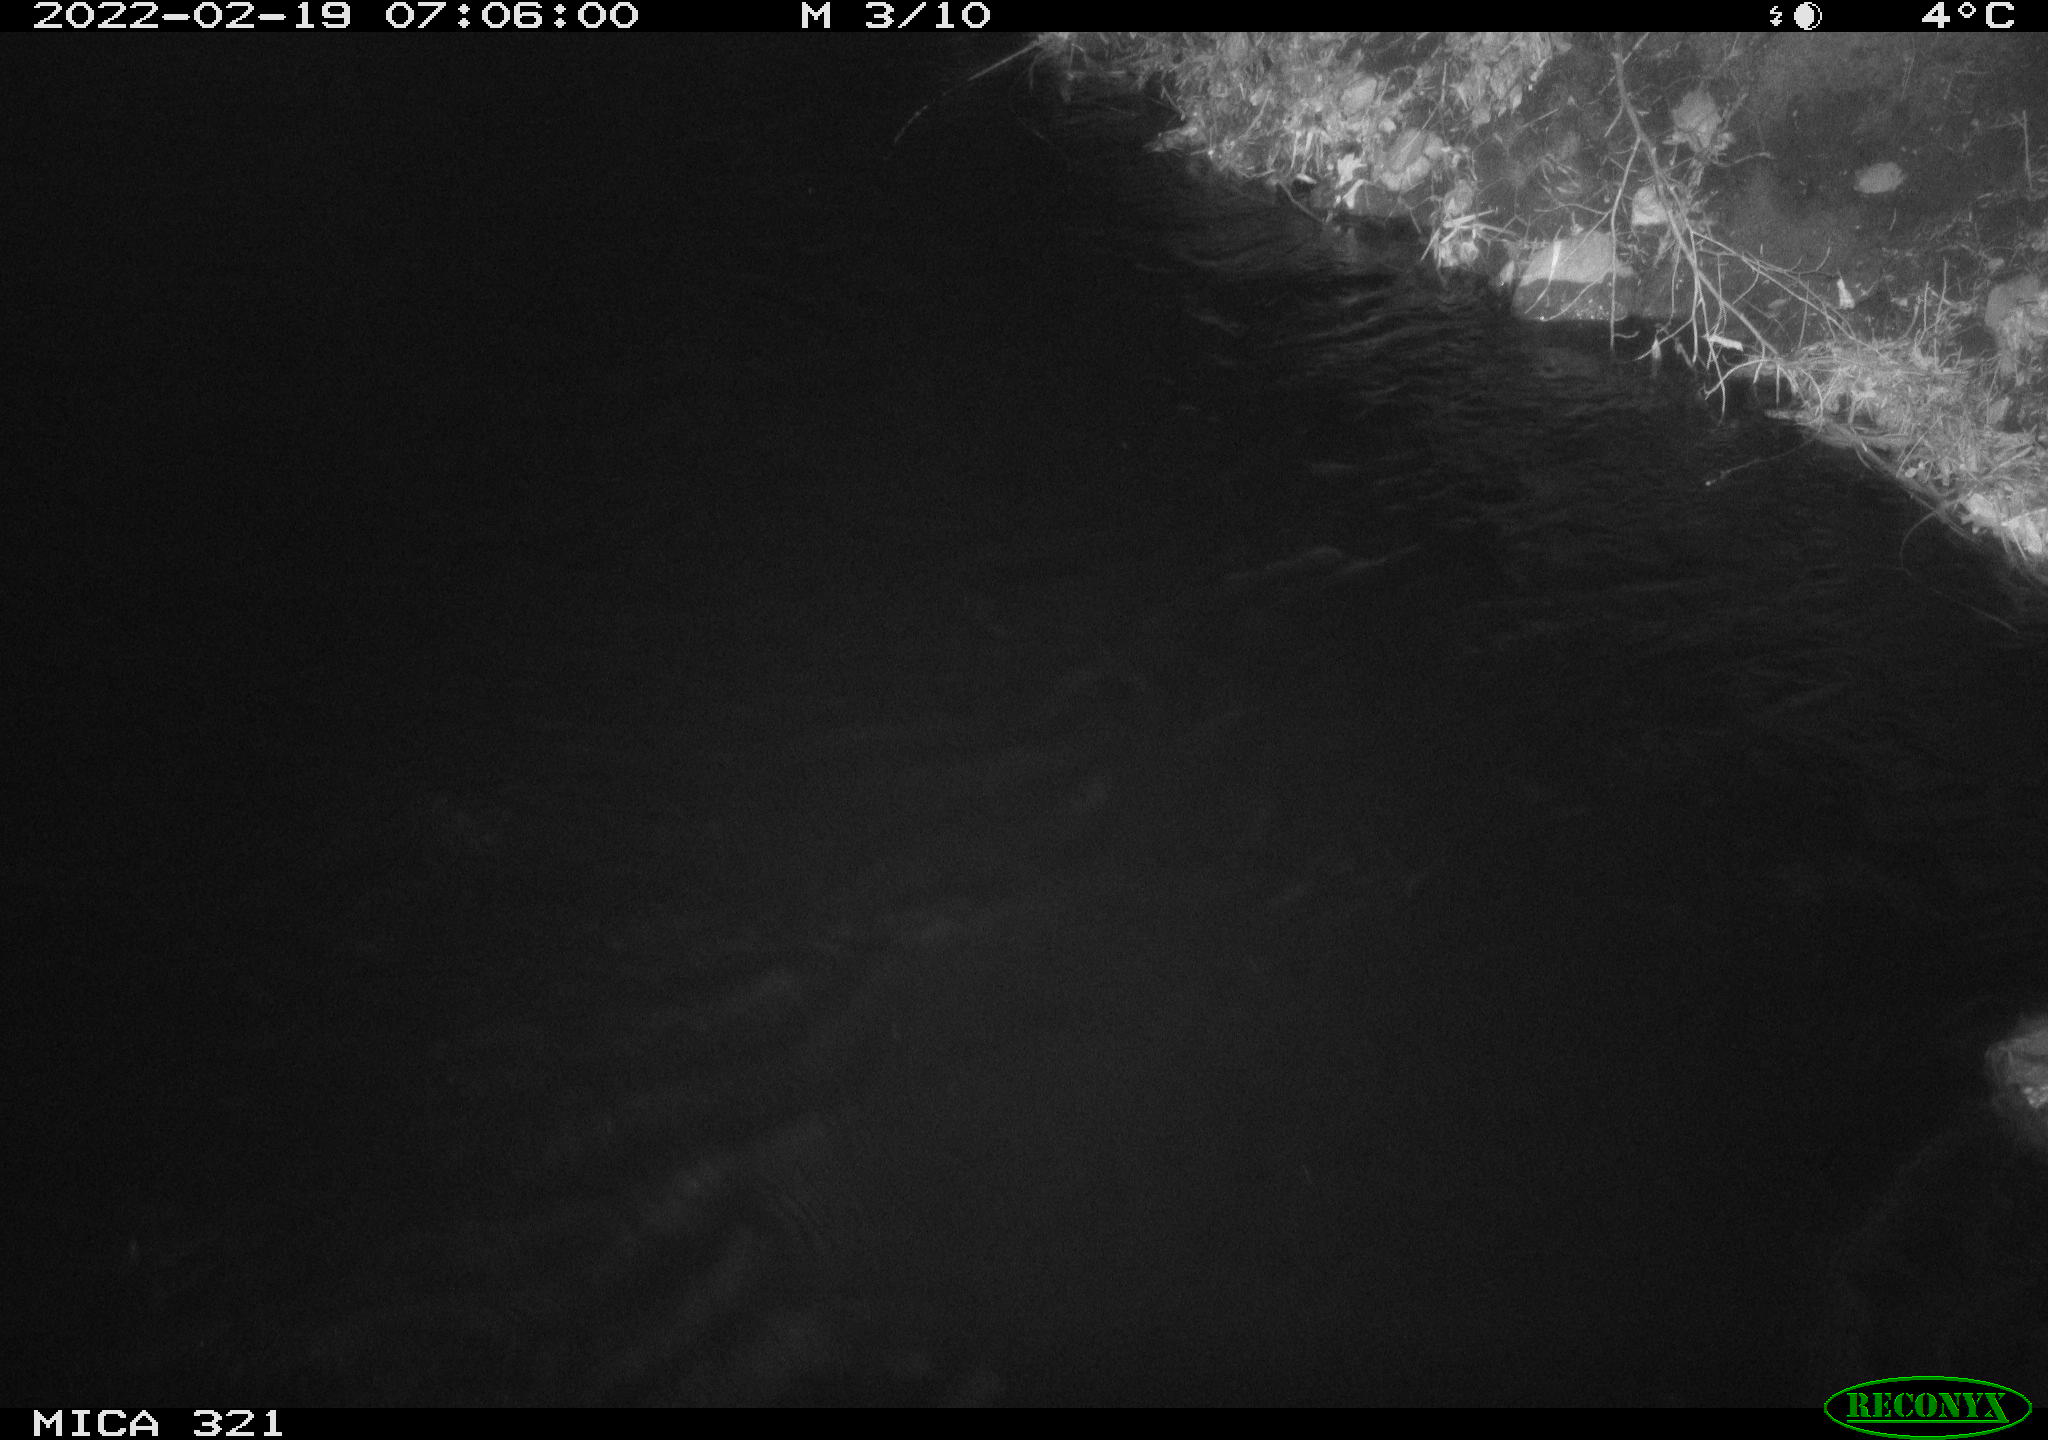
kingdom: Animalia
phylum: Chordata
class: Aves
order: Anseriformes
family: Anatidae
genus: Anas
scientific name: Anas platyrhynchos
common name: Mallard
